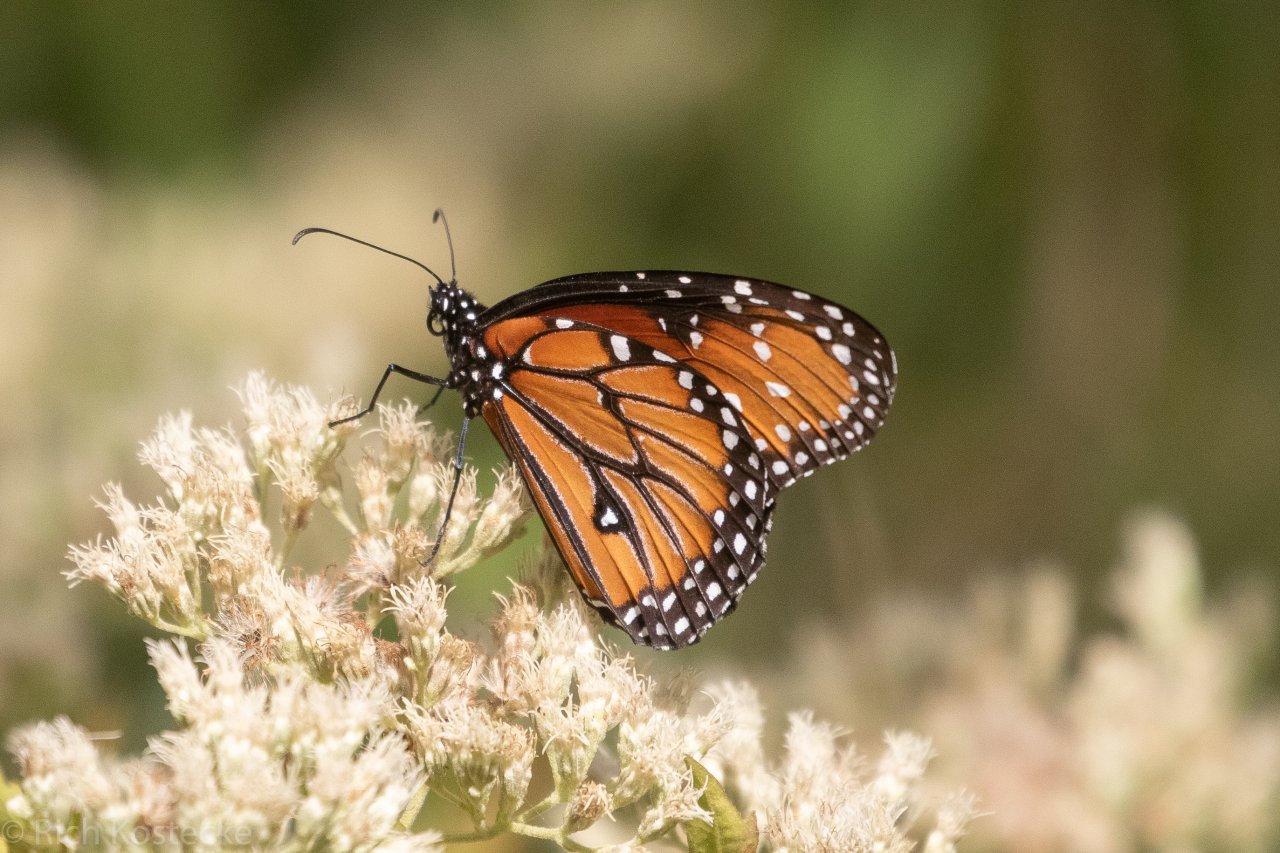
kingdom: Animalia
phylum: Arthropoda
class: Insecta
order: Lepidoptera
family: Nymphalidae
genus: Danaus
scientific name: Danaus gilippus
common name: Queen
